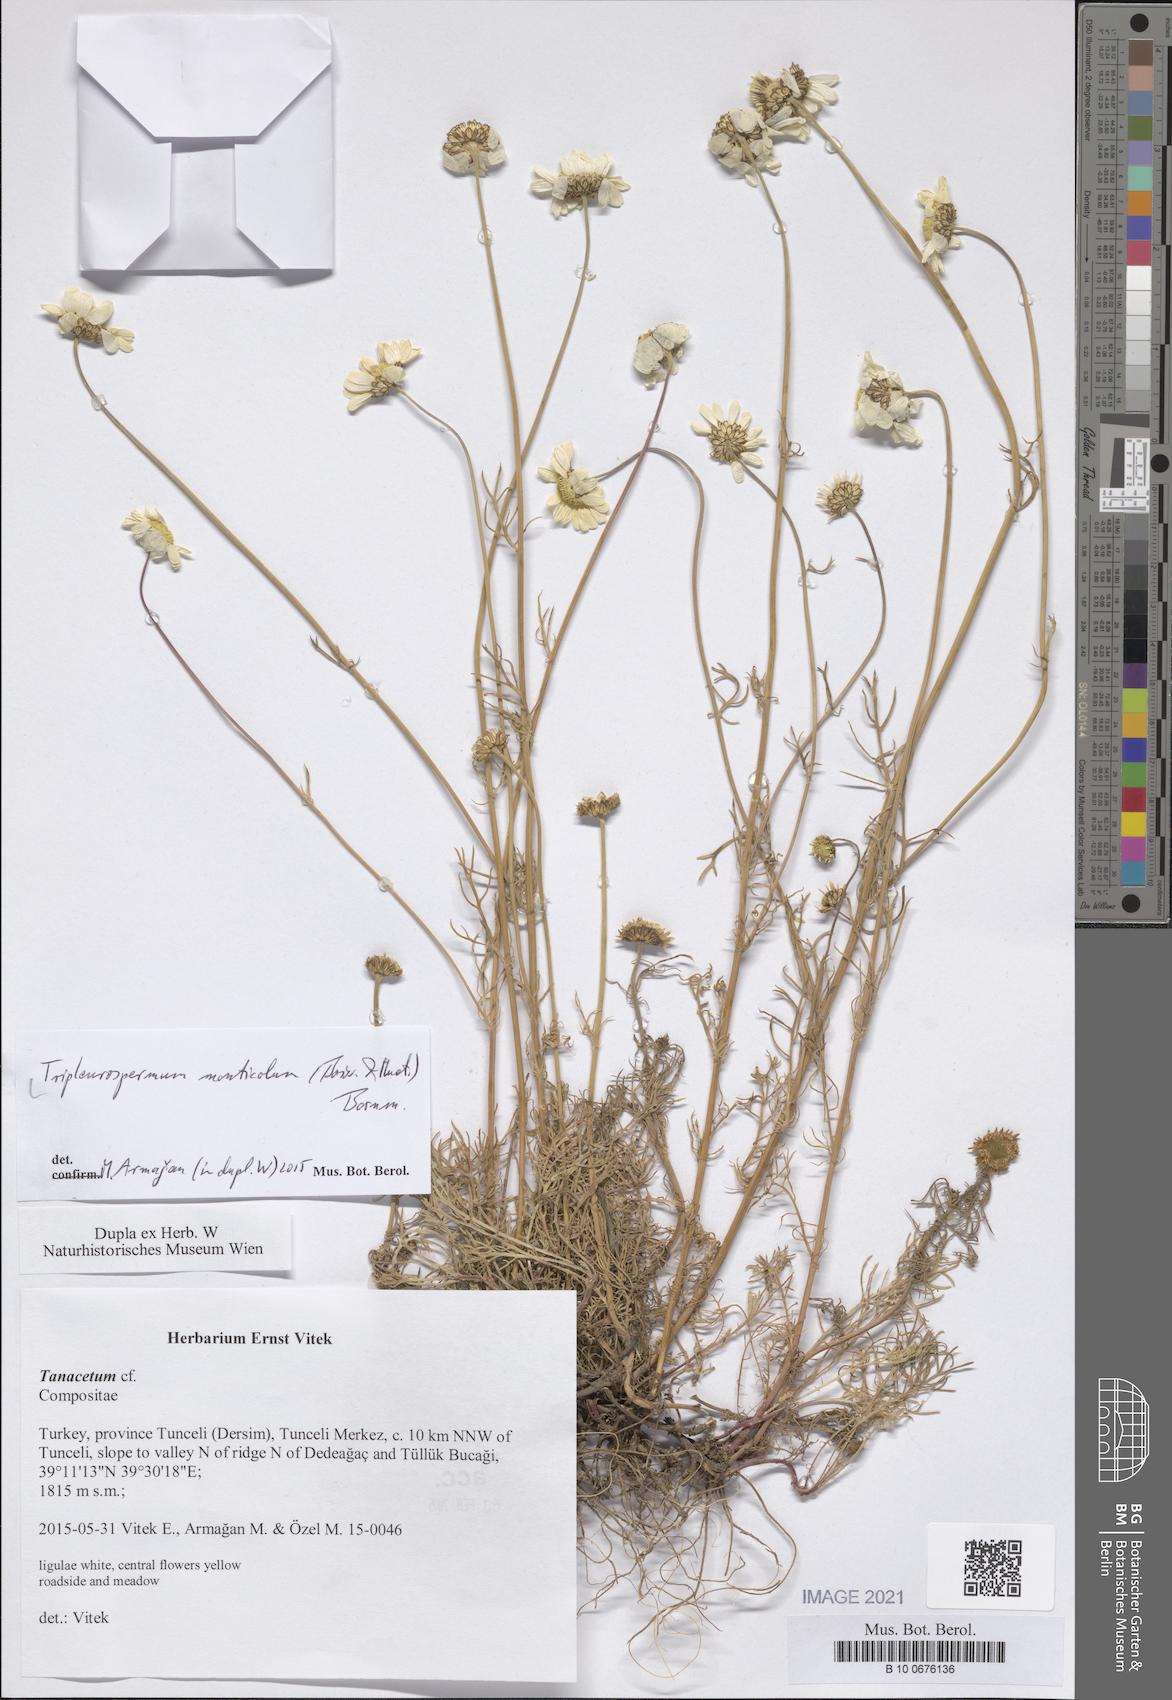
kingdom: Plantae
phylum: Tracheophyta
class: Magnoliopsida
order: Asterales
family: Asteraceae
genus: Tripleurospermum
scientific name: Tripleurospermum monticolum
